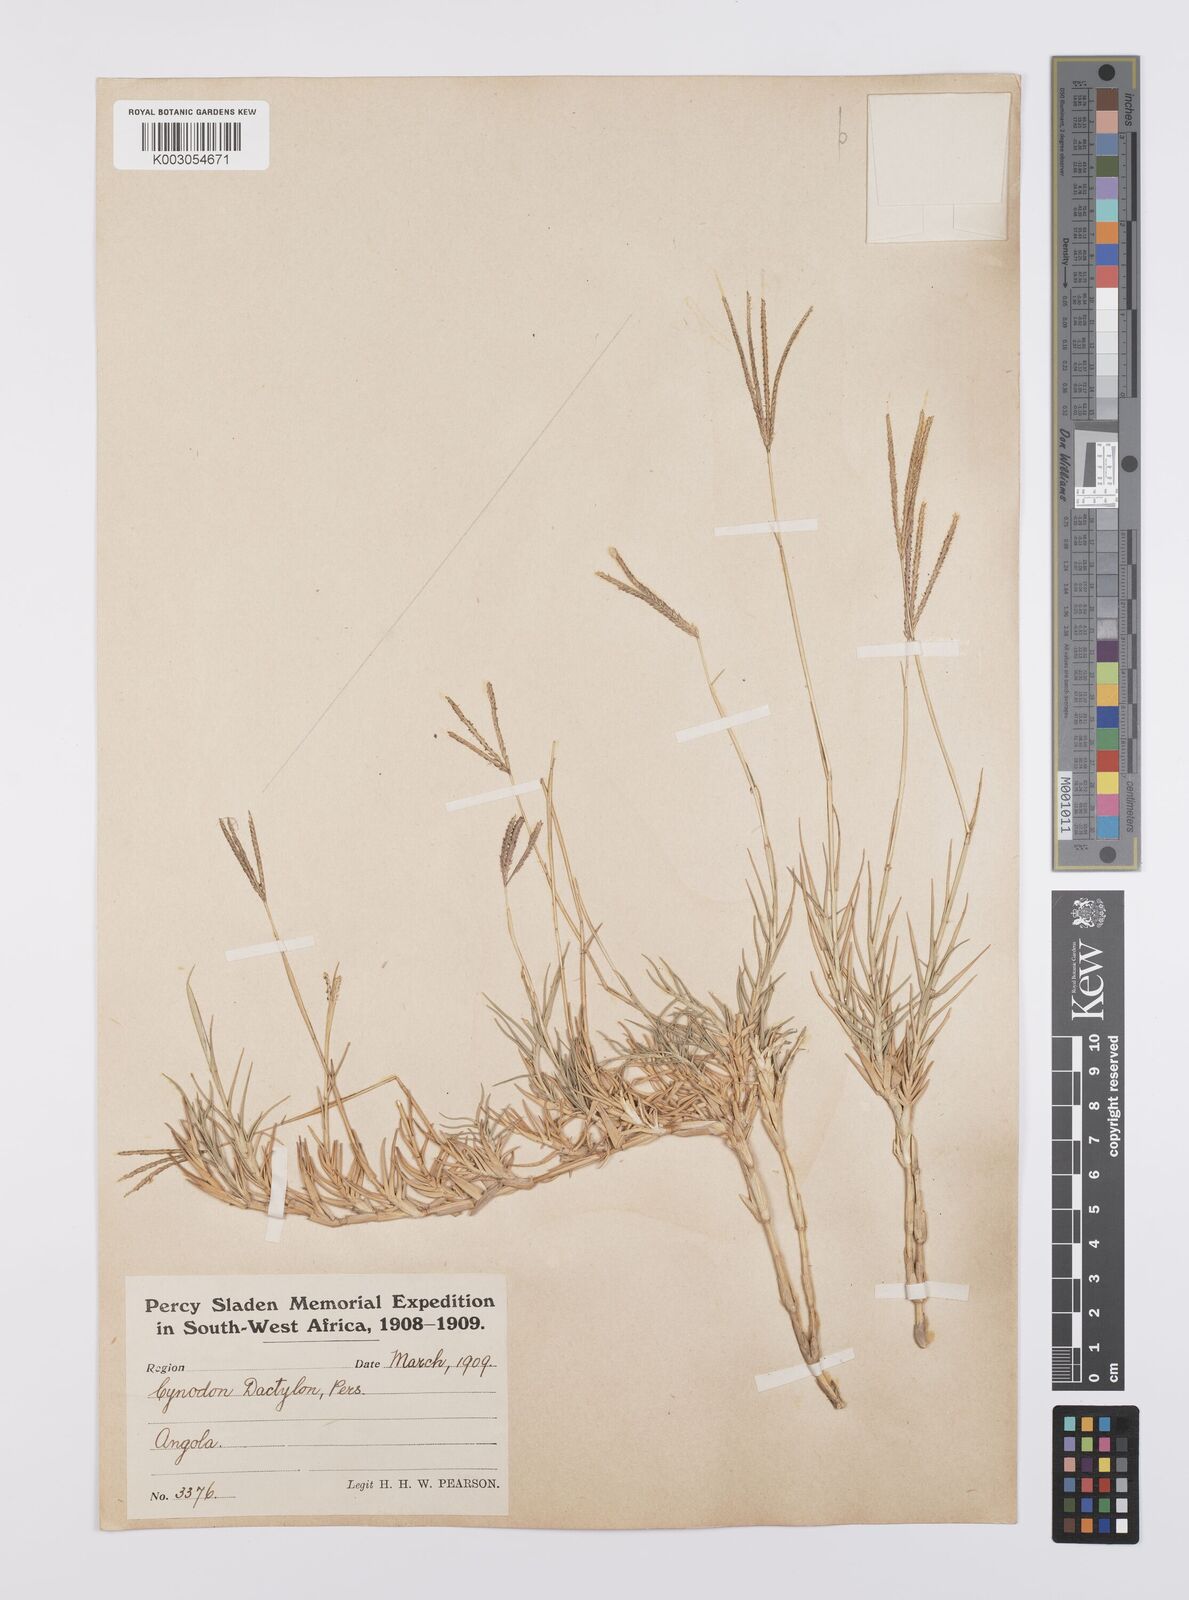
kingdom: Plantae
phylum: Tracheophyta
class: Liliopsida
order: Poales
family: Poaceae
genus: Cynodon
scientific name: Cynodon dactylon
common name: Bermuda grass
